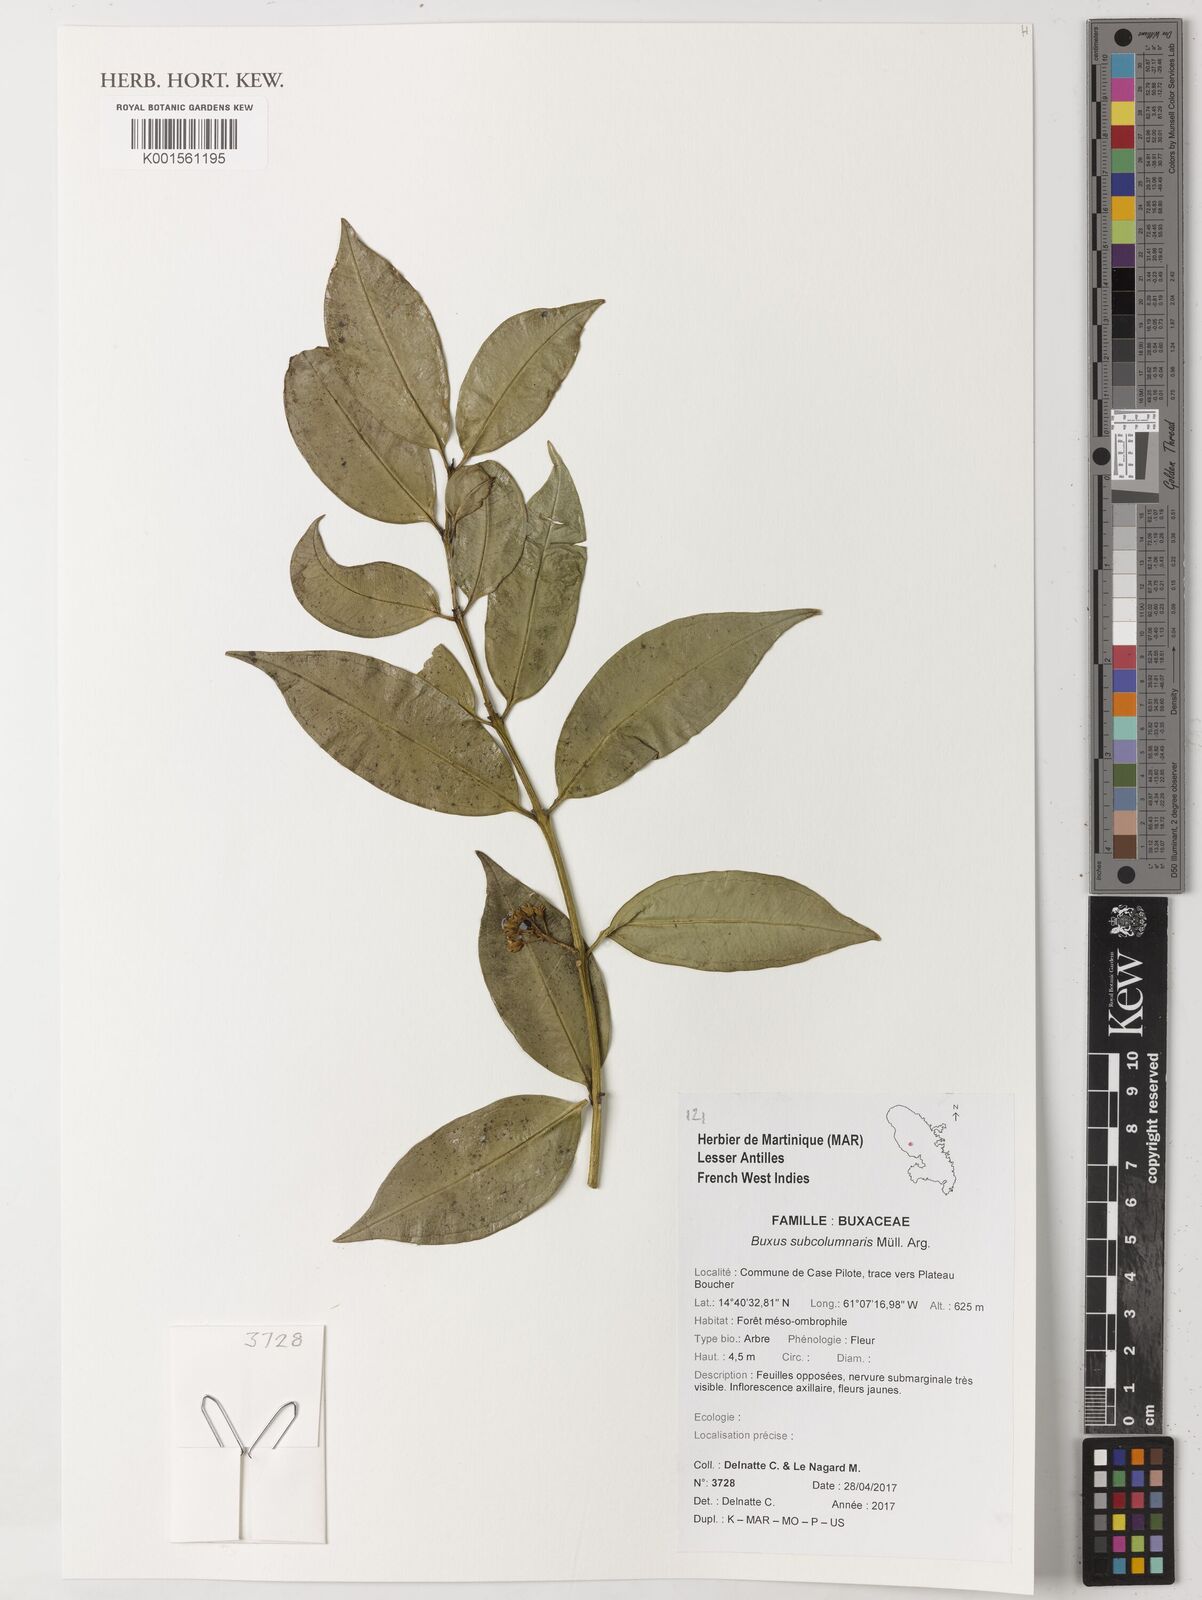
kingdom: Plantae
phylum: Tracheophyta
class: Magnoliopsida
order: Buxales
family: Buxaceae
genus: Buxus
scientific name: Buxus subcolumnaris
